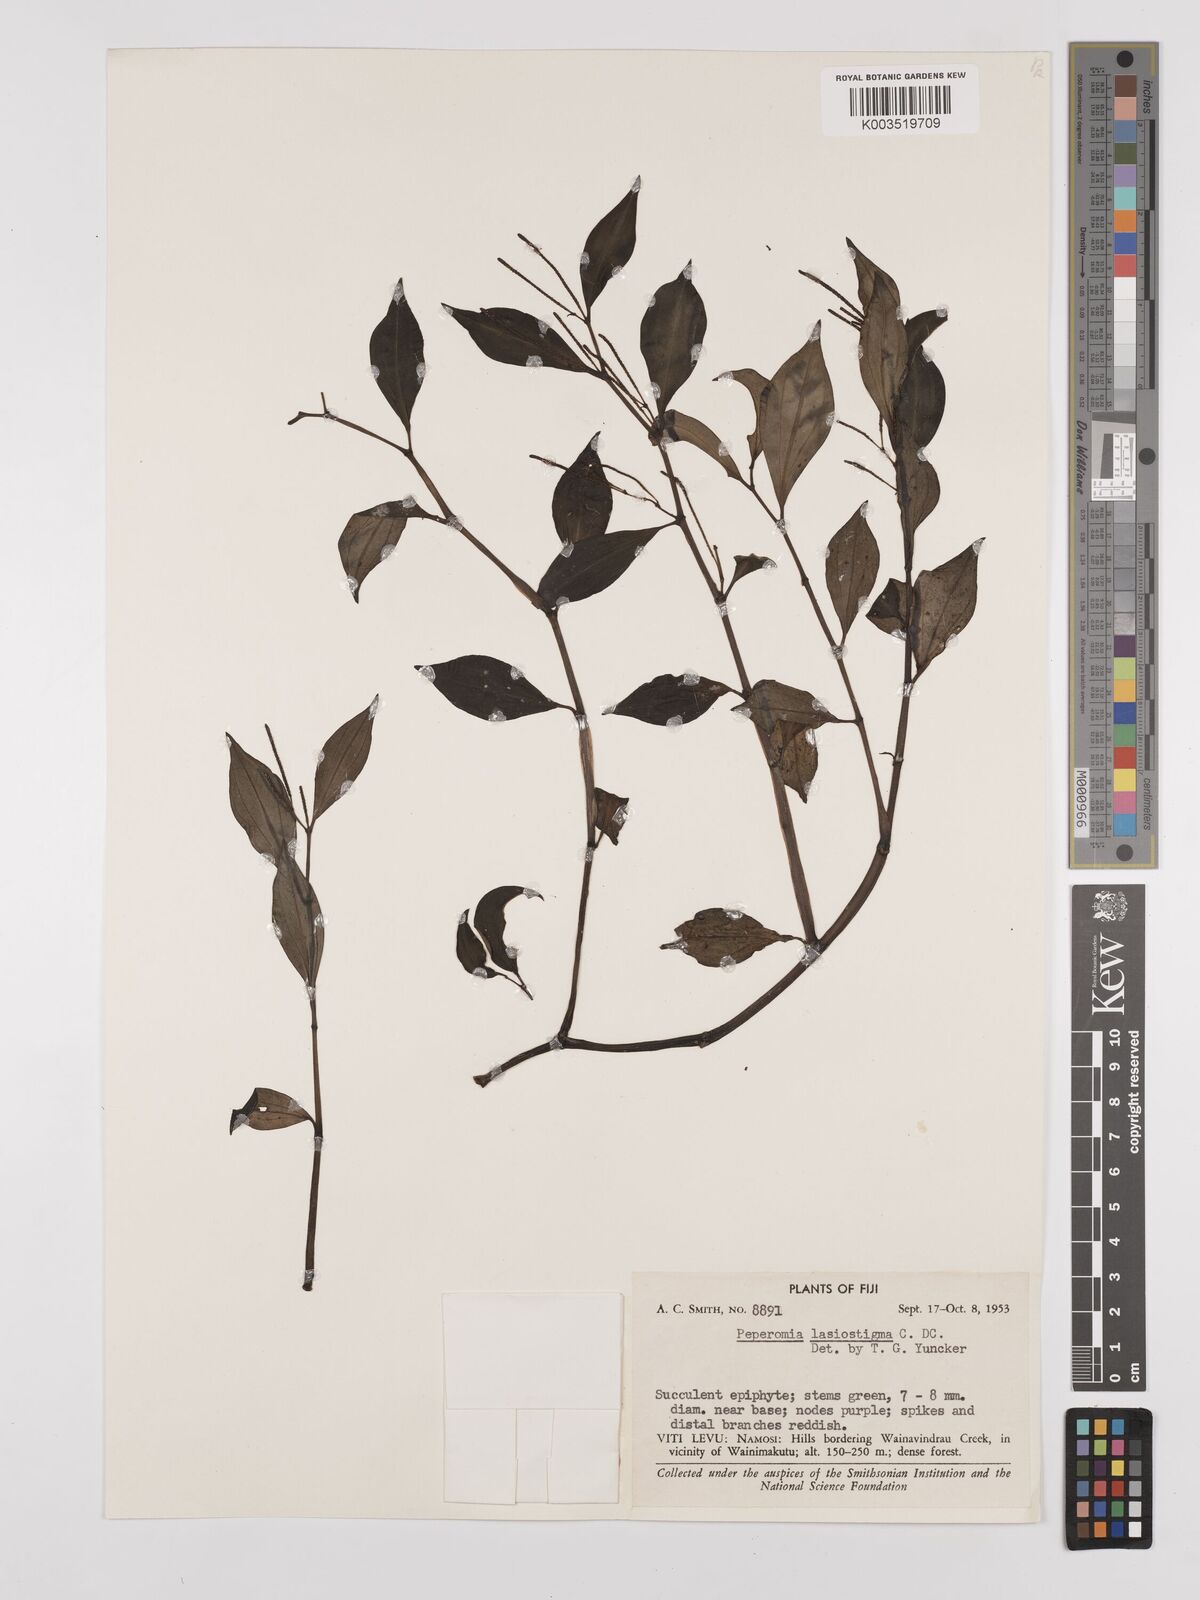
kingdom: Plantae
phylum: Tracheophyta
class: Magnoliopsida
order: Piperales
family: Piperaceae
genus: Peperomia
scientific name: Peperomia lasiostigma
